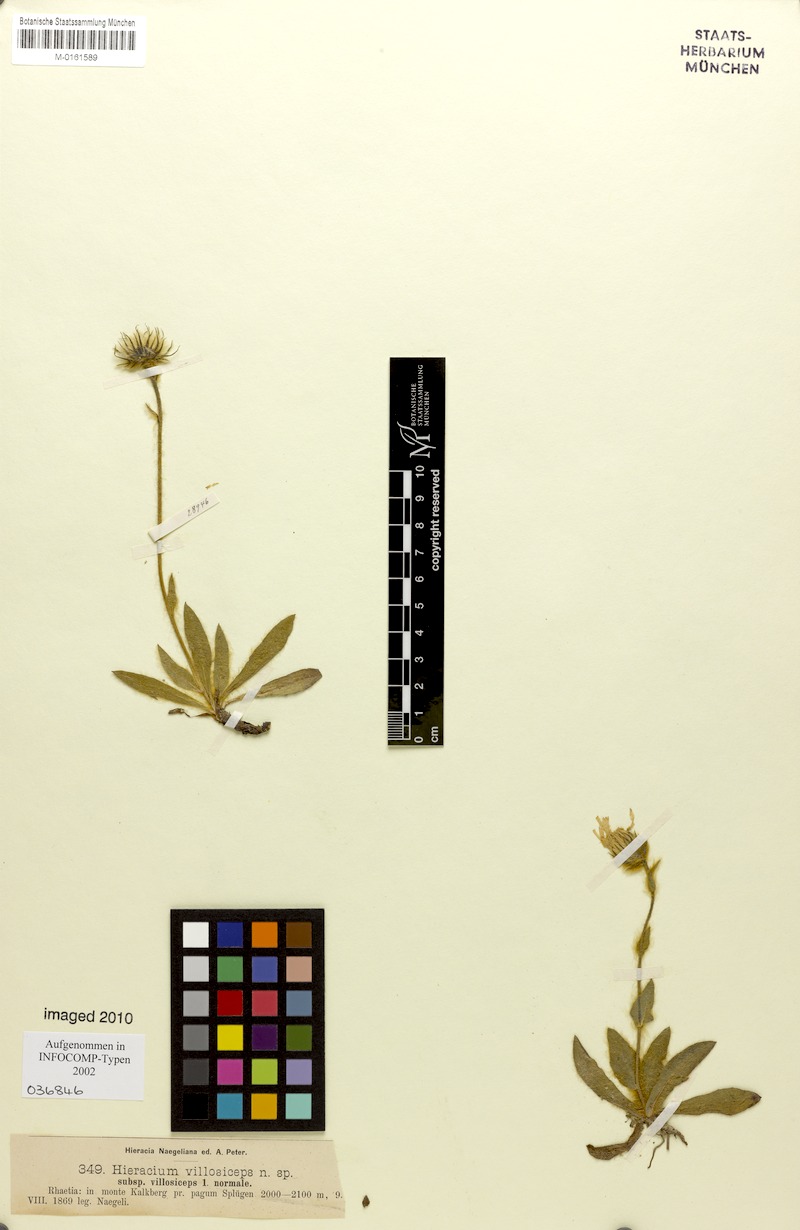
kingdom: Plantae
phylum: Tracheophyta
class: Magnoliopsida
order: Asterales
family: Asteraceae
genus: Hieracium
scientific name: Hieracium pilosum
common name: Fimbriate-pitted hawkweed
